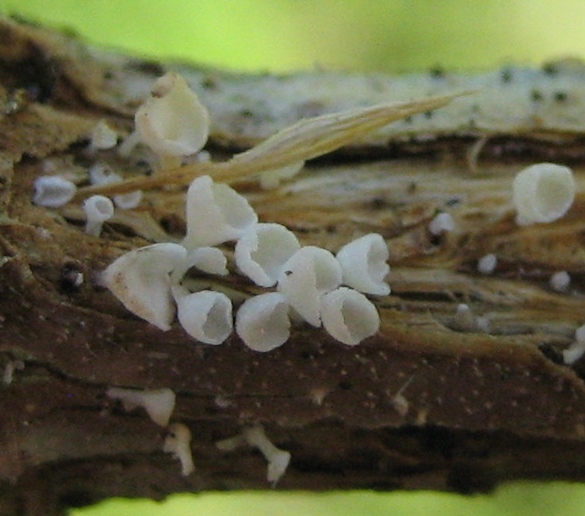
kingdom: Fungi
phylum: Basidiomycota
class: Agaricomycetes
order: Agaricales
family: Marasmiaceae
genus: Calyptella
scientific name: Calyptella capula
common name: hvidlig nældehue
